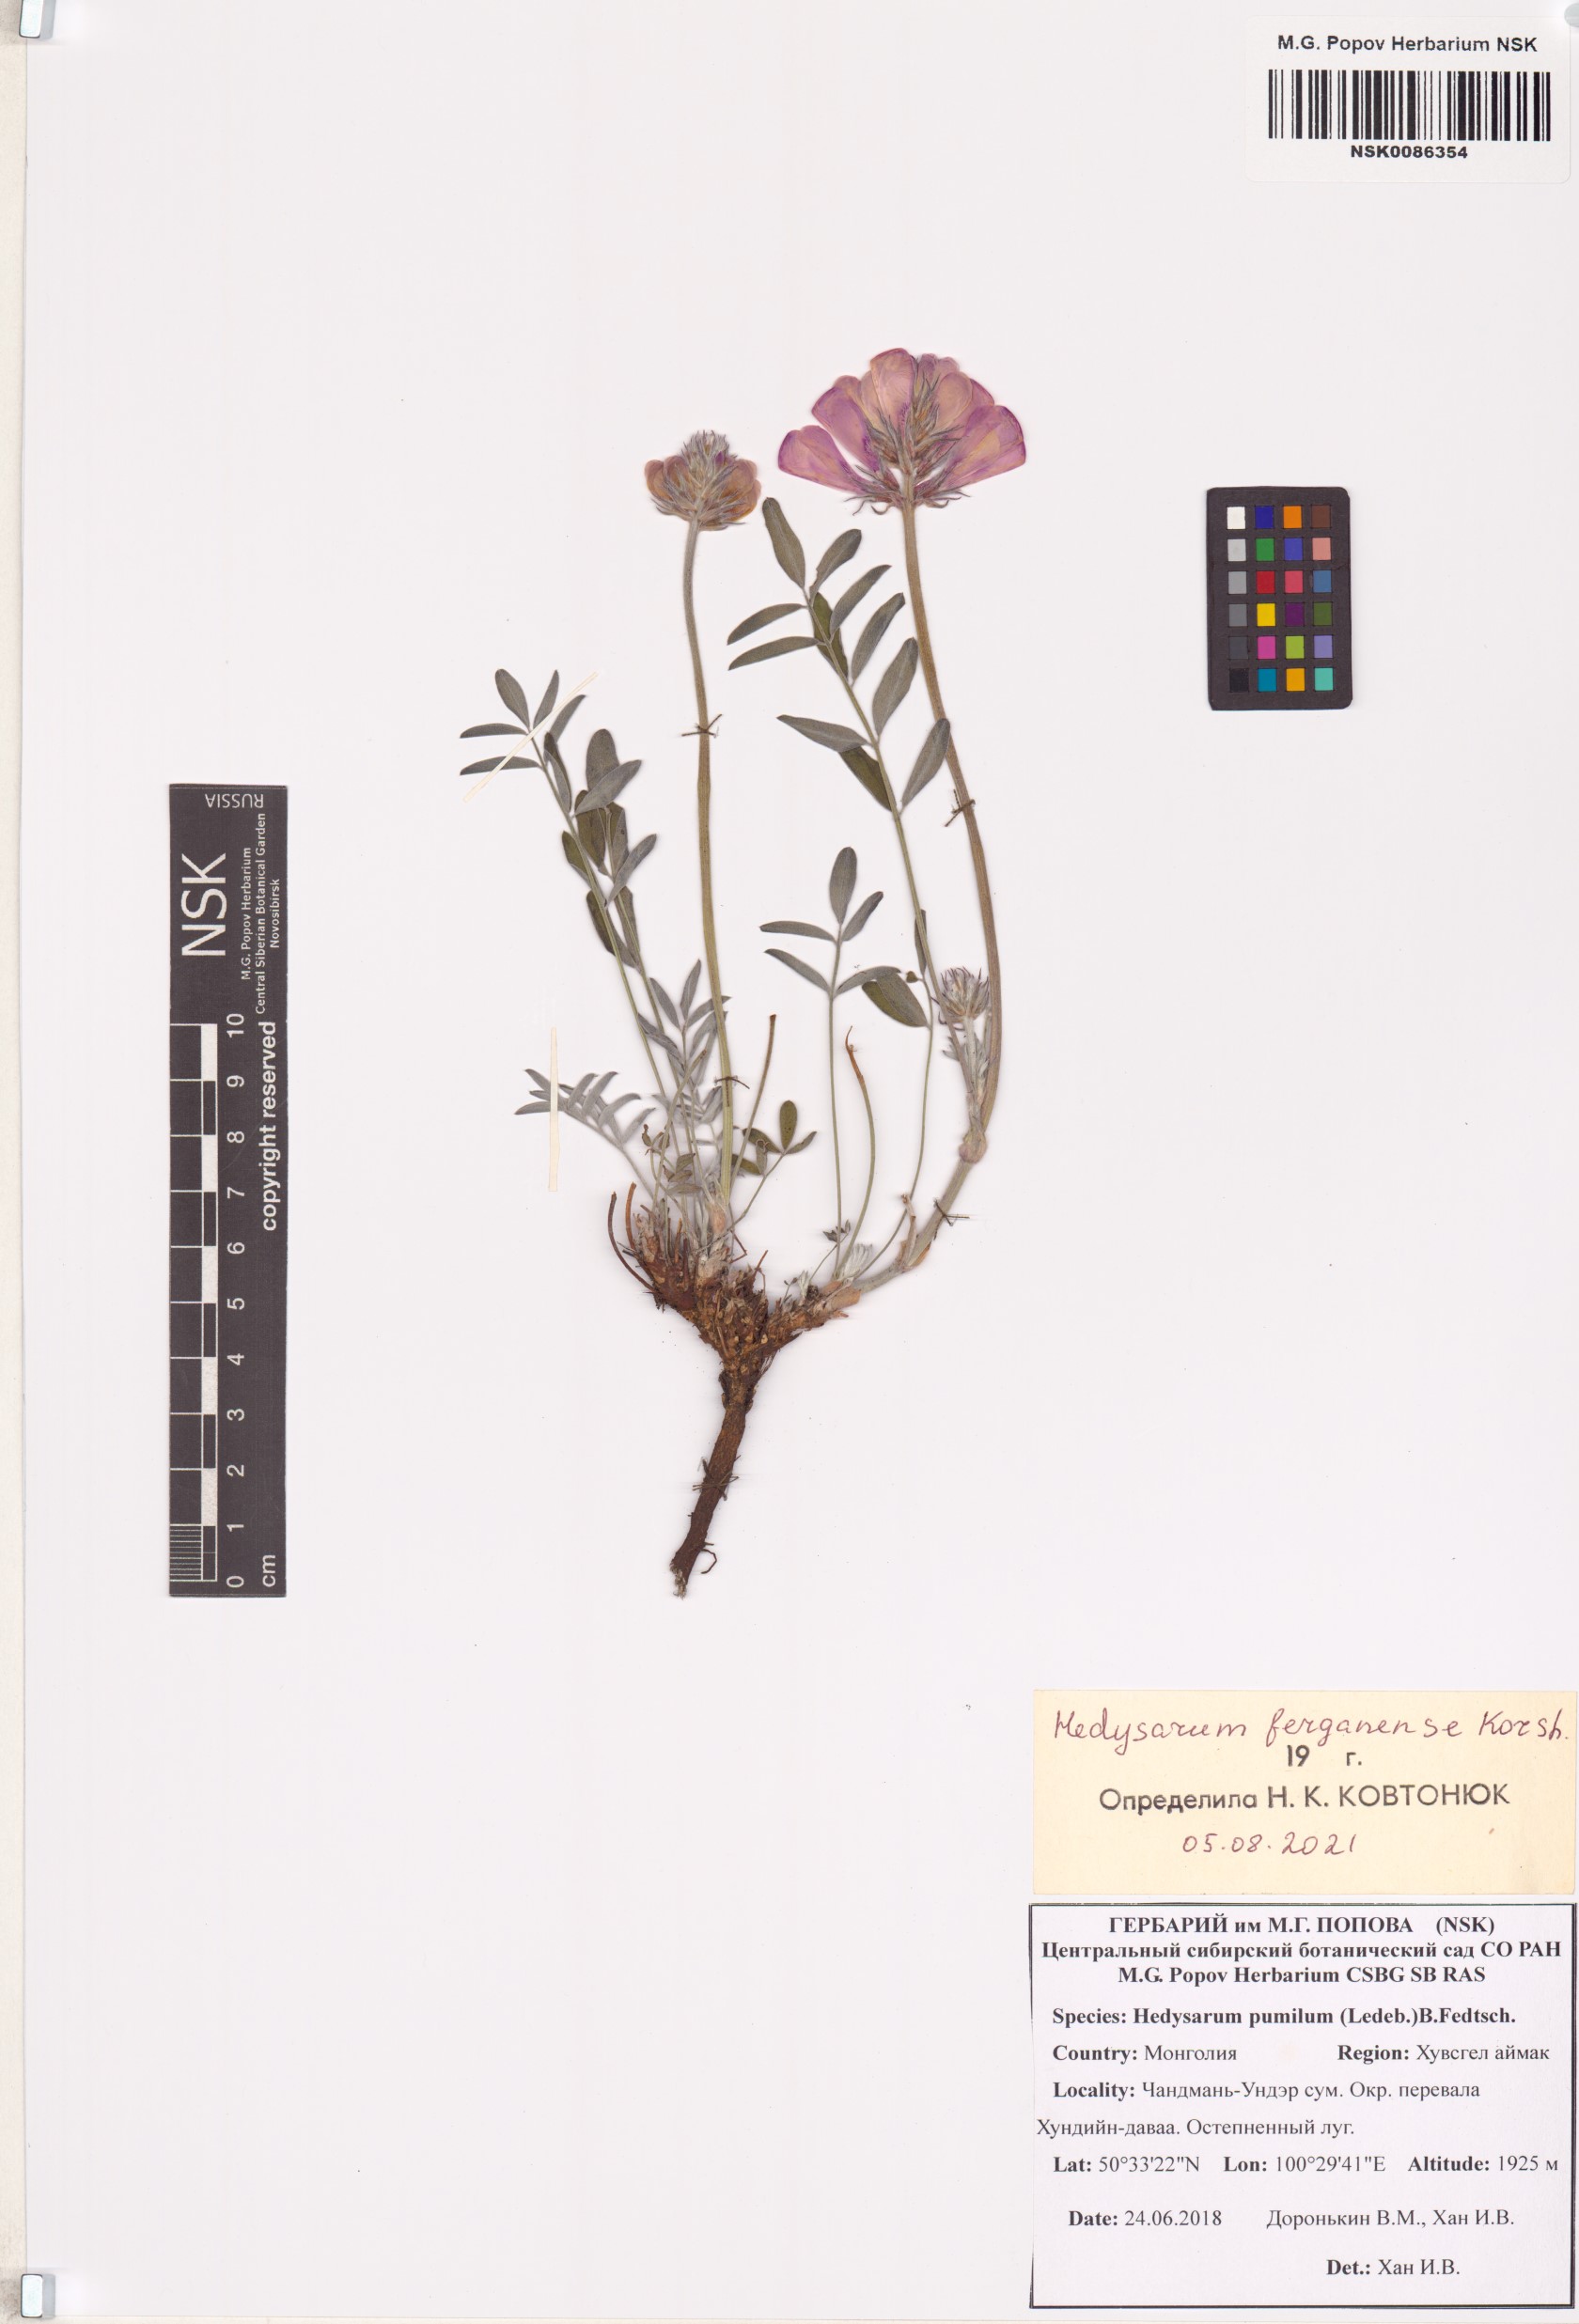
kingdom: Plantae
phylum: Tracheophyta
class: Magnoliopsida
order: Fabales
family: Fabaceae
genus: Hedysarum
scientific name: Hedysarum ferganense
